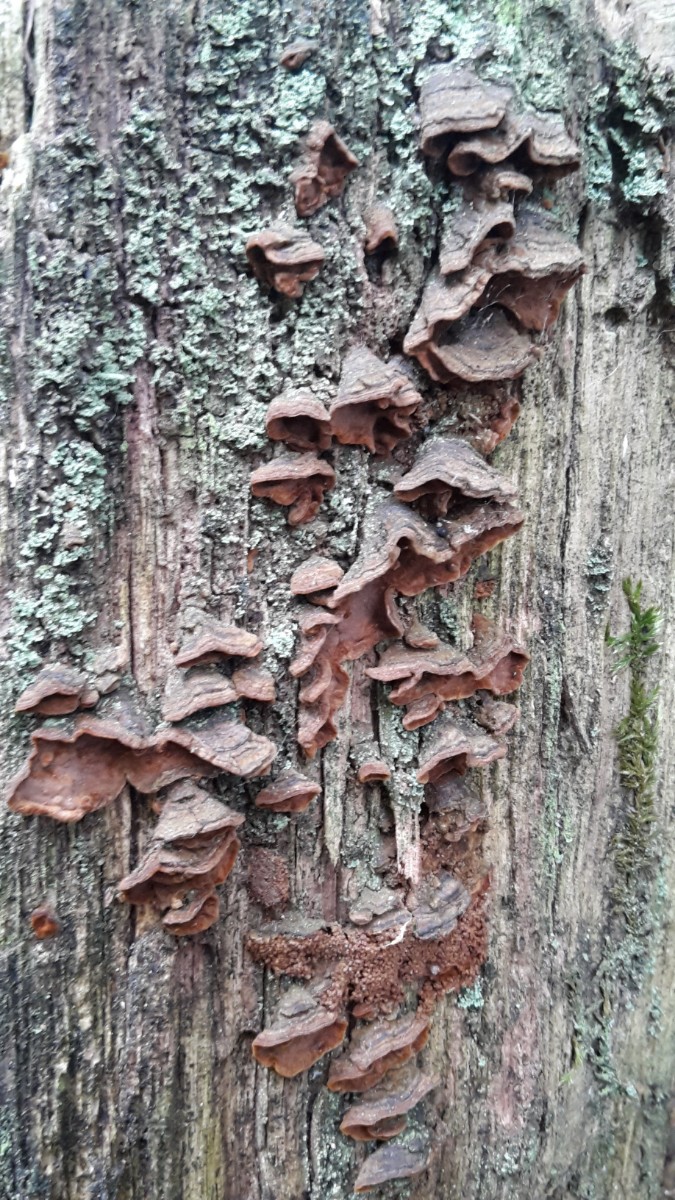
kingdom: Fungi
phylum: Basidiomycota
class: Agaricomycetes
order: Hymenochaetales
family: Hymenochaetaceae
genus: Hymenochaete
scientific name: Hymenochaete rubiginosa
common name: stiv ruslædersvamp
